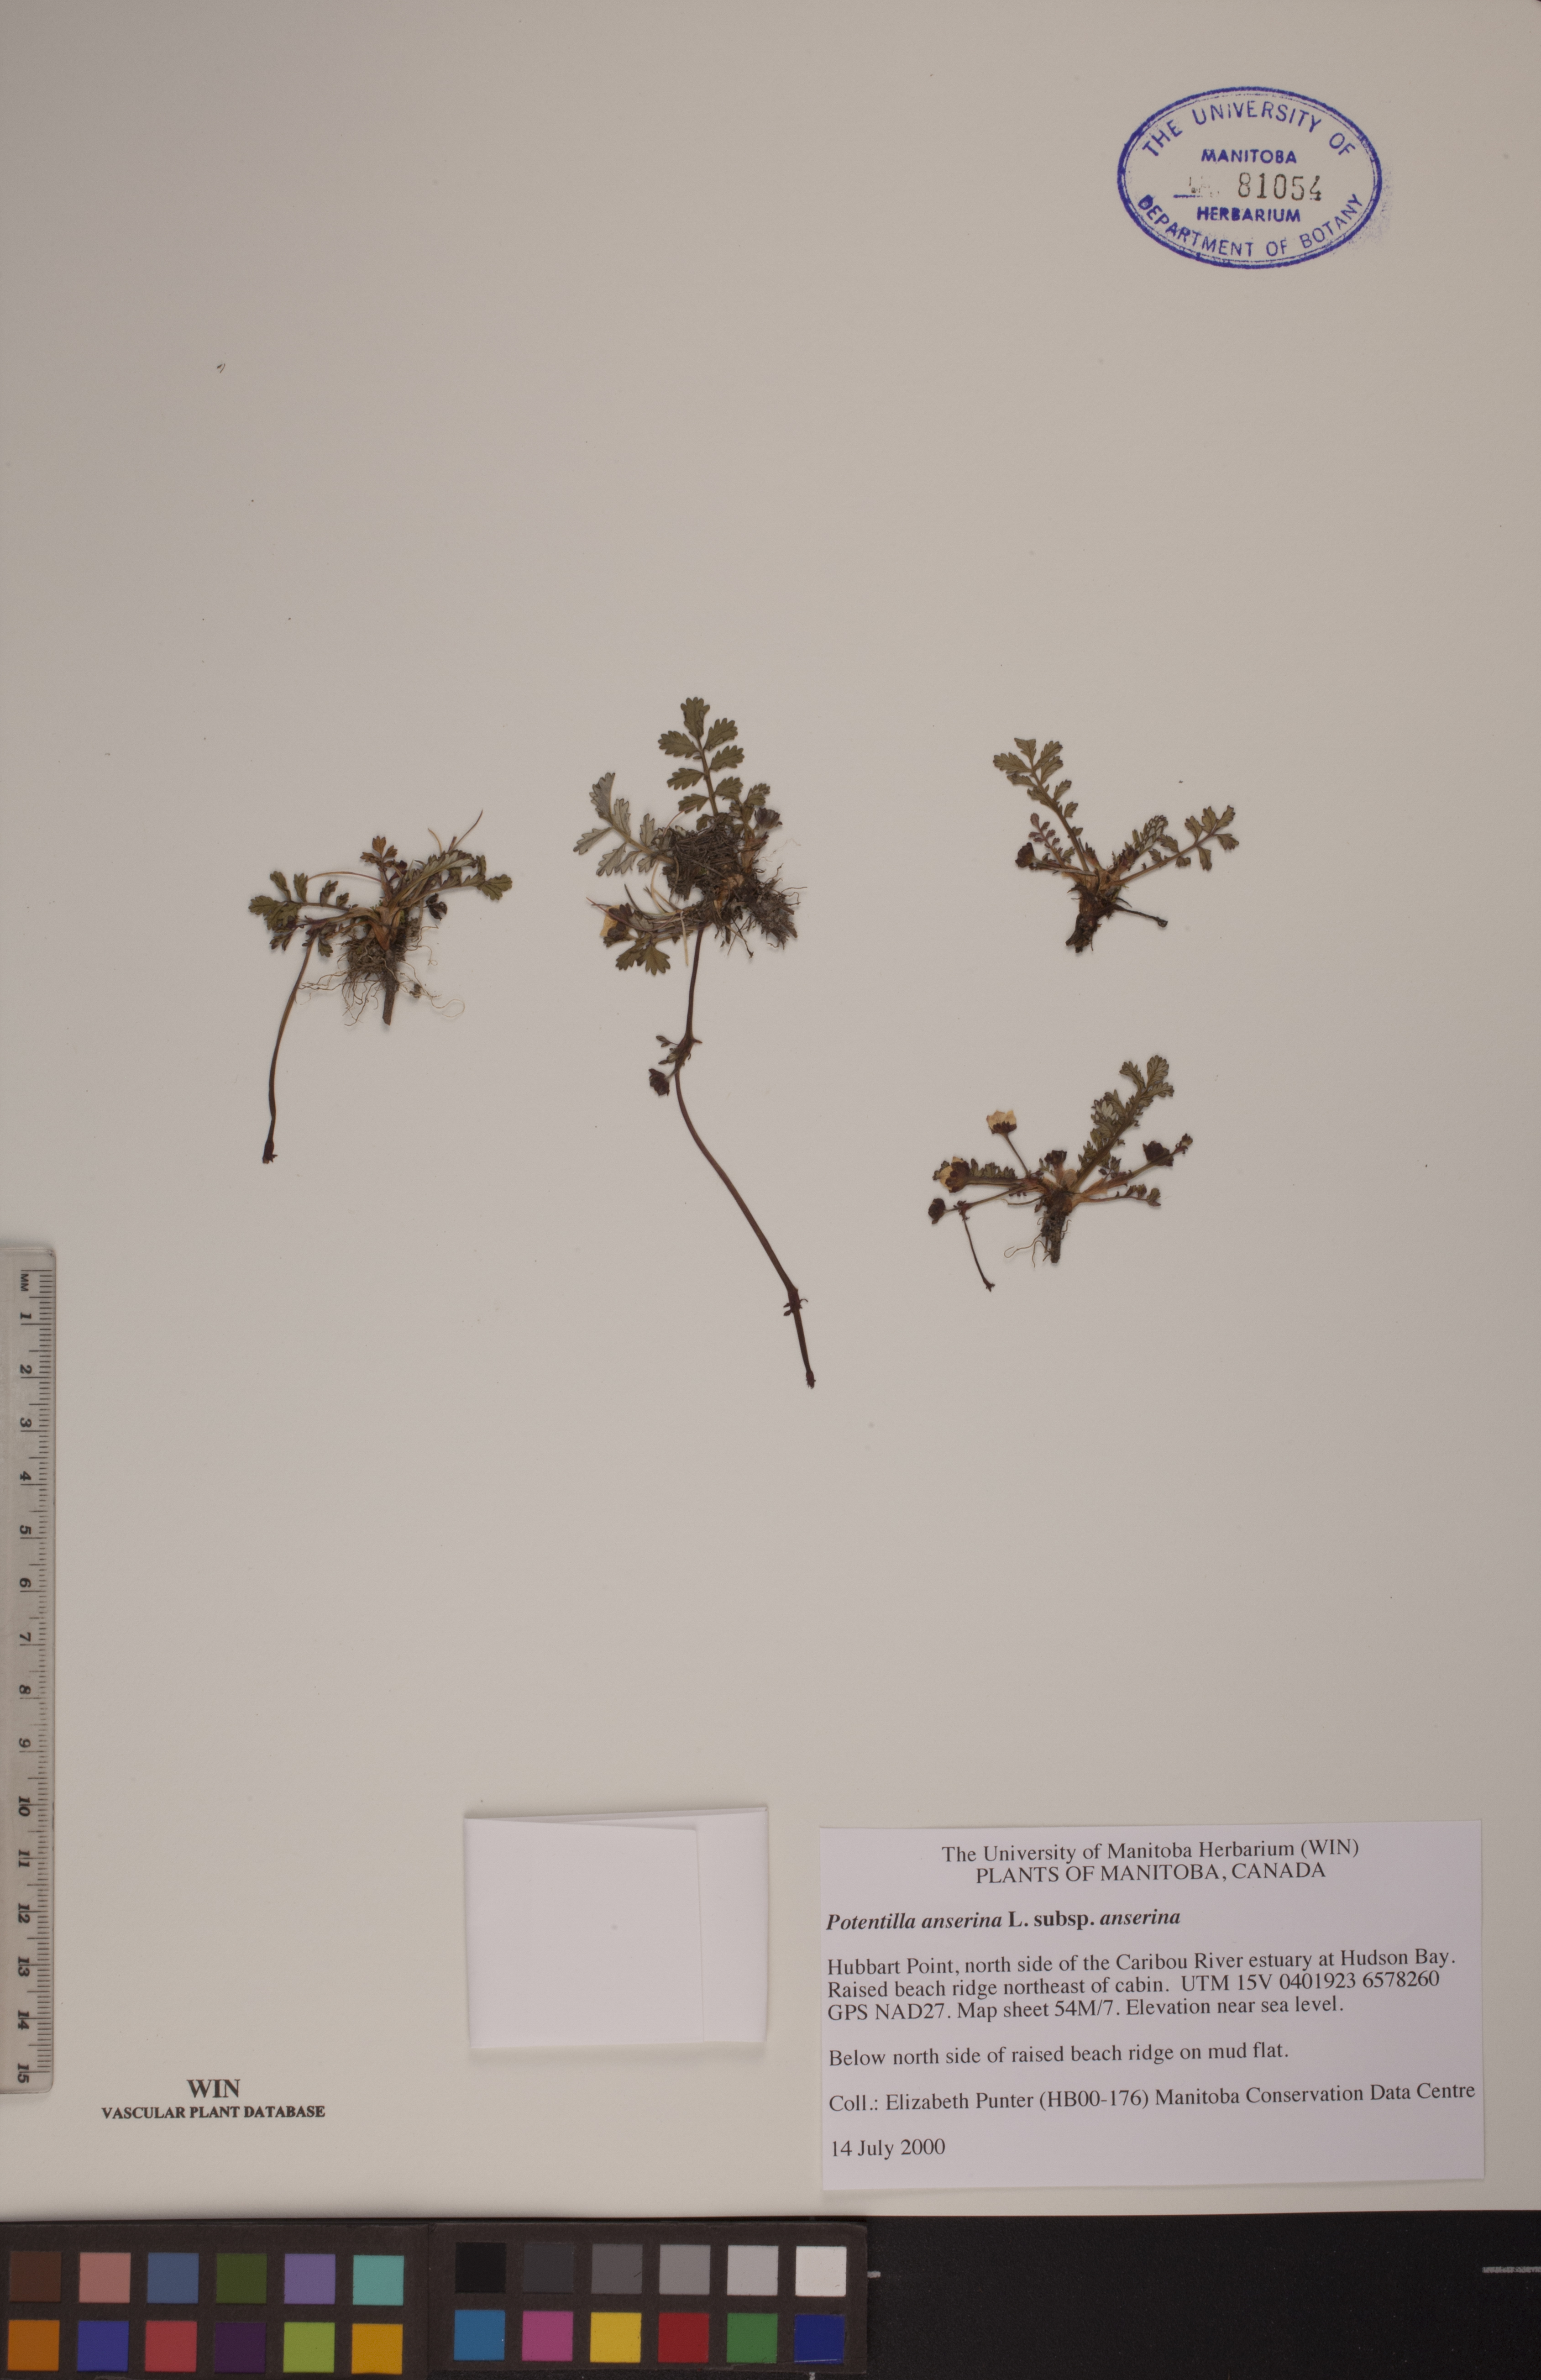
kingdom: Plantae
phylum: Tracheophyta
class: Magnoliopsida
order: Rosales
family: Rosaceae
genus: Argentina
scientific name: Argentina anserina
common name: Common silverweed
